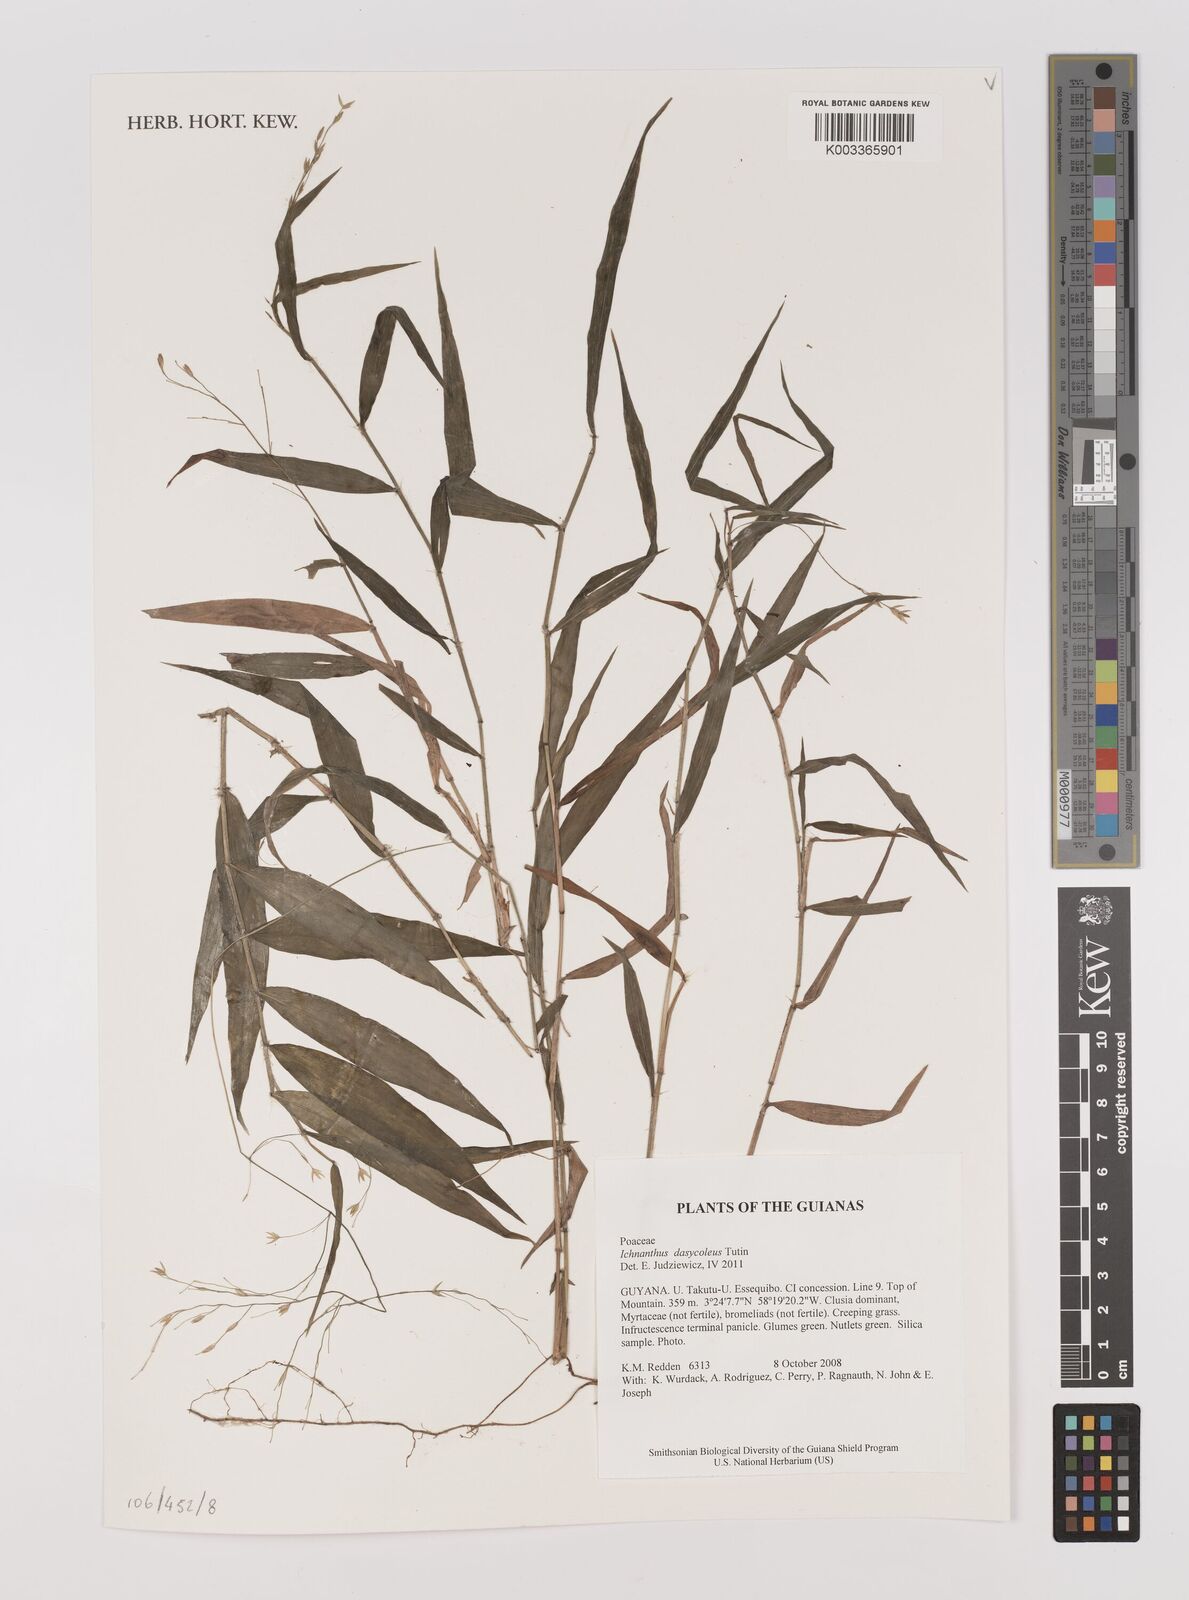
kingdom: Plantae
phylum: Tracheophyta
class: Liliopsida
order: Poales
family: Poaceae
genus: Ichnanthus
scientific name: Ichnanthus dasycoleus
